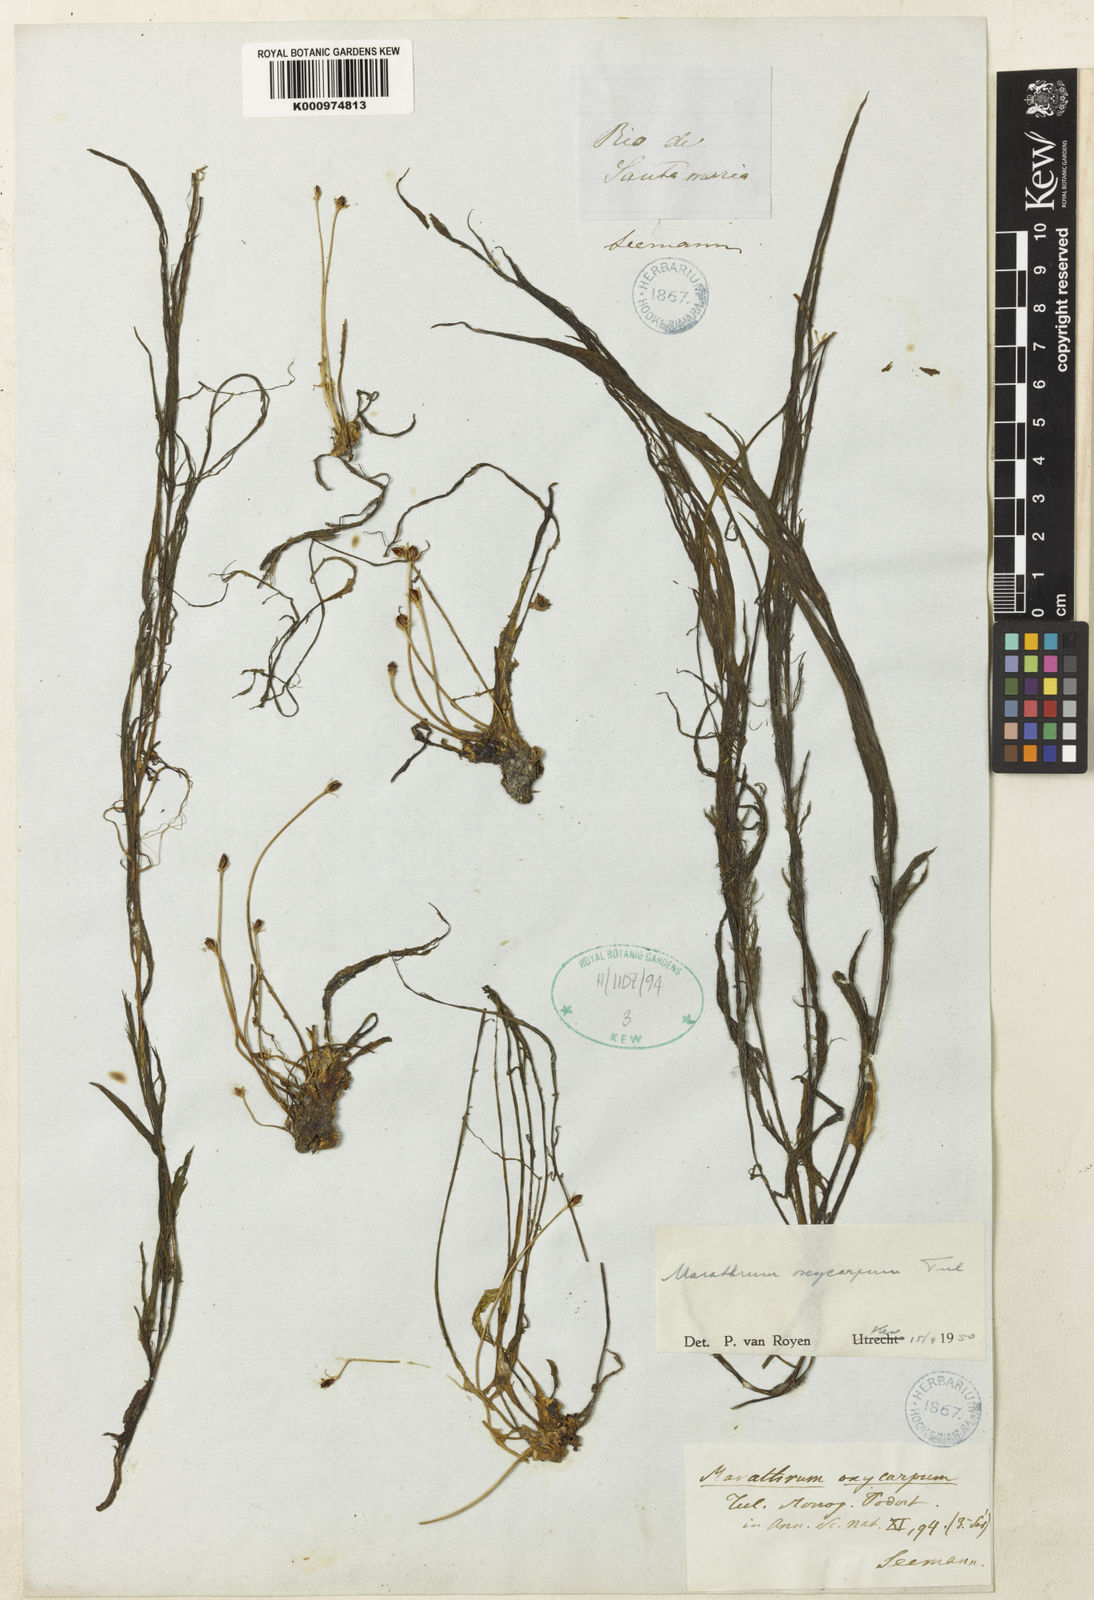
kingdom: Plantae
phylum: Tracheophyta
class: Magnoliopsida
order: Malpighiales
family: Podostemaceae
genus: Marathrum
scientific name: Marathrum foeniculaceum
